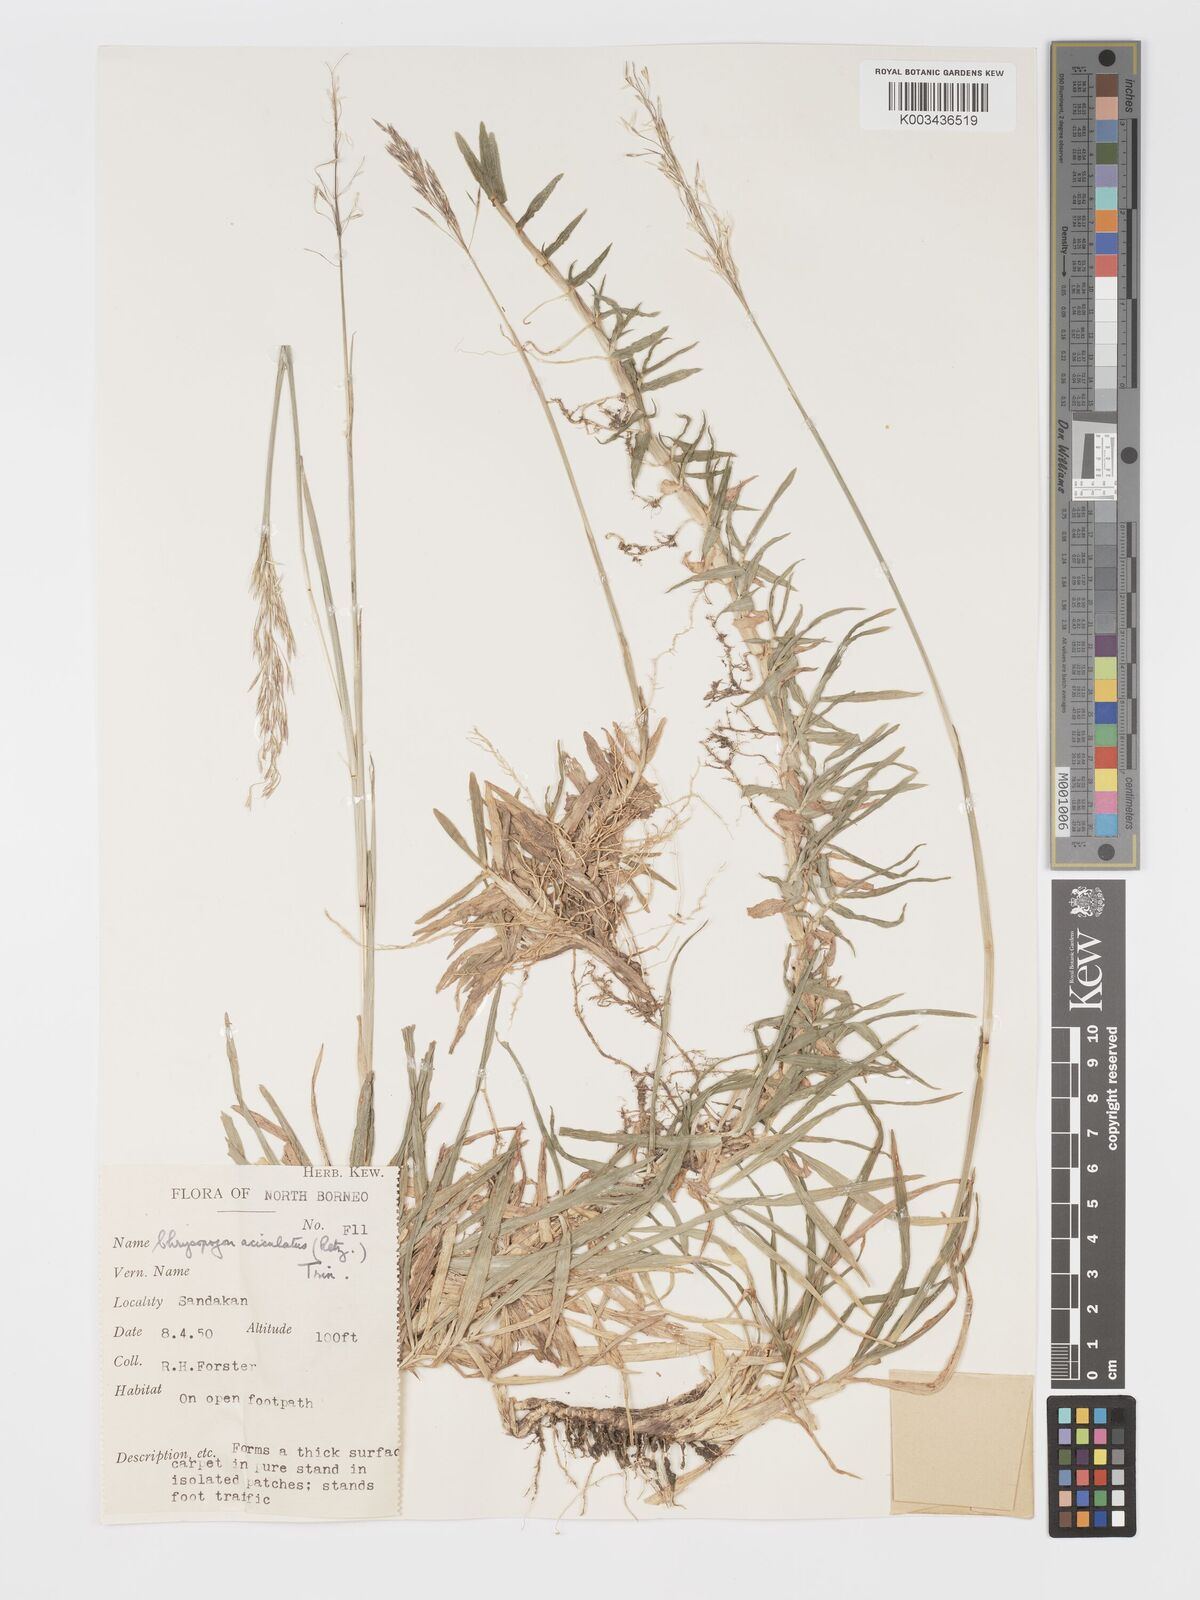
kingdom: Plantae
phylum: Tracheophyta
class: Liliopsida
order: Poales
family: Poaceae
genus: Chrysopogon
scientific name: Chrysopogon aciculatus
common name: Pilipiliula
